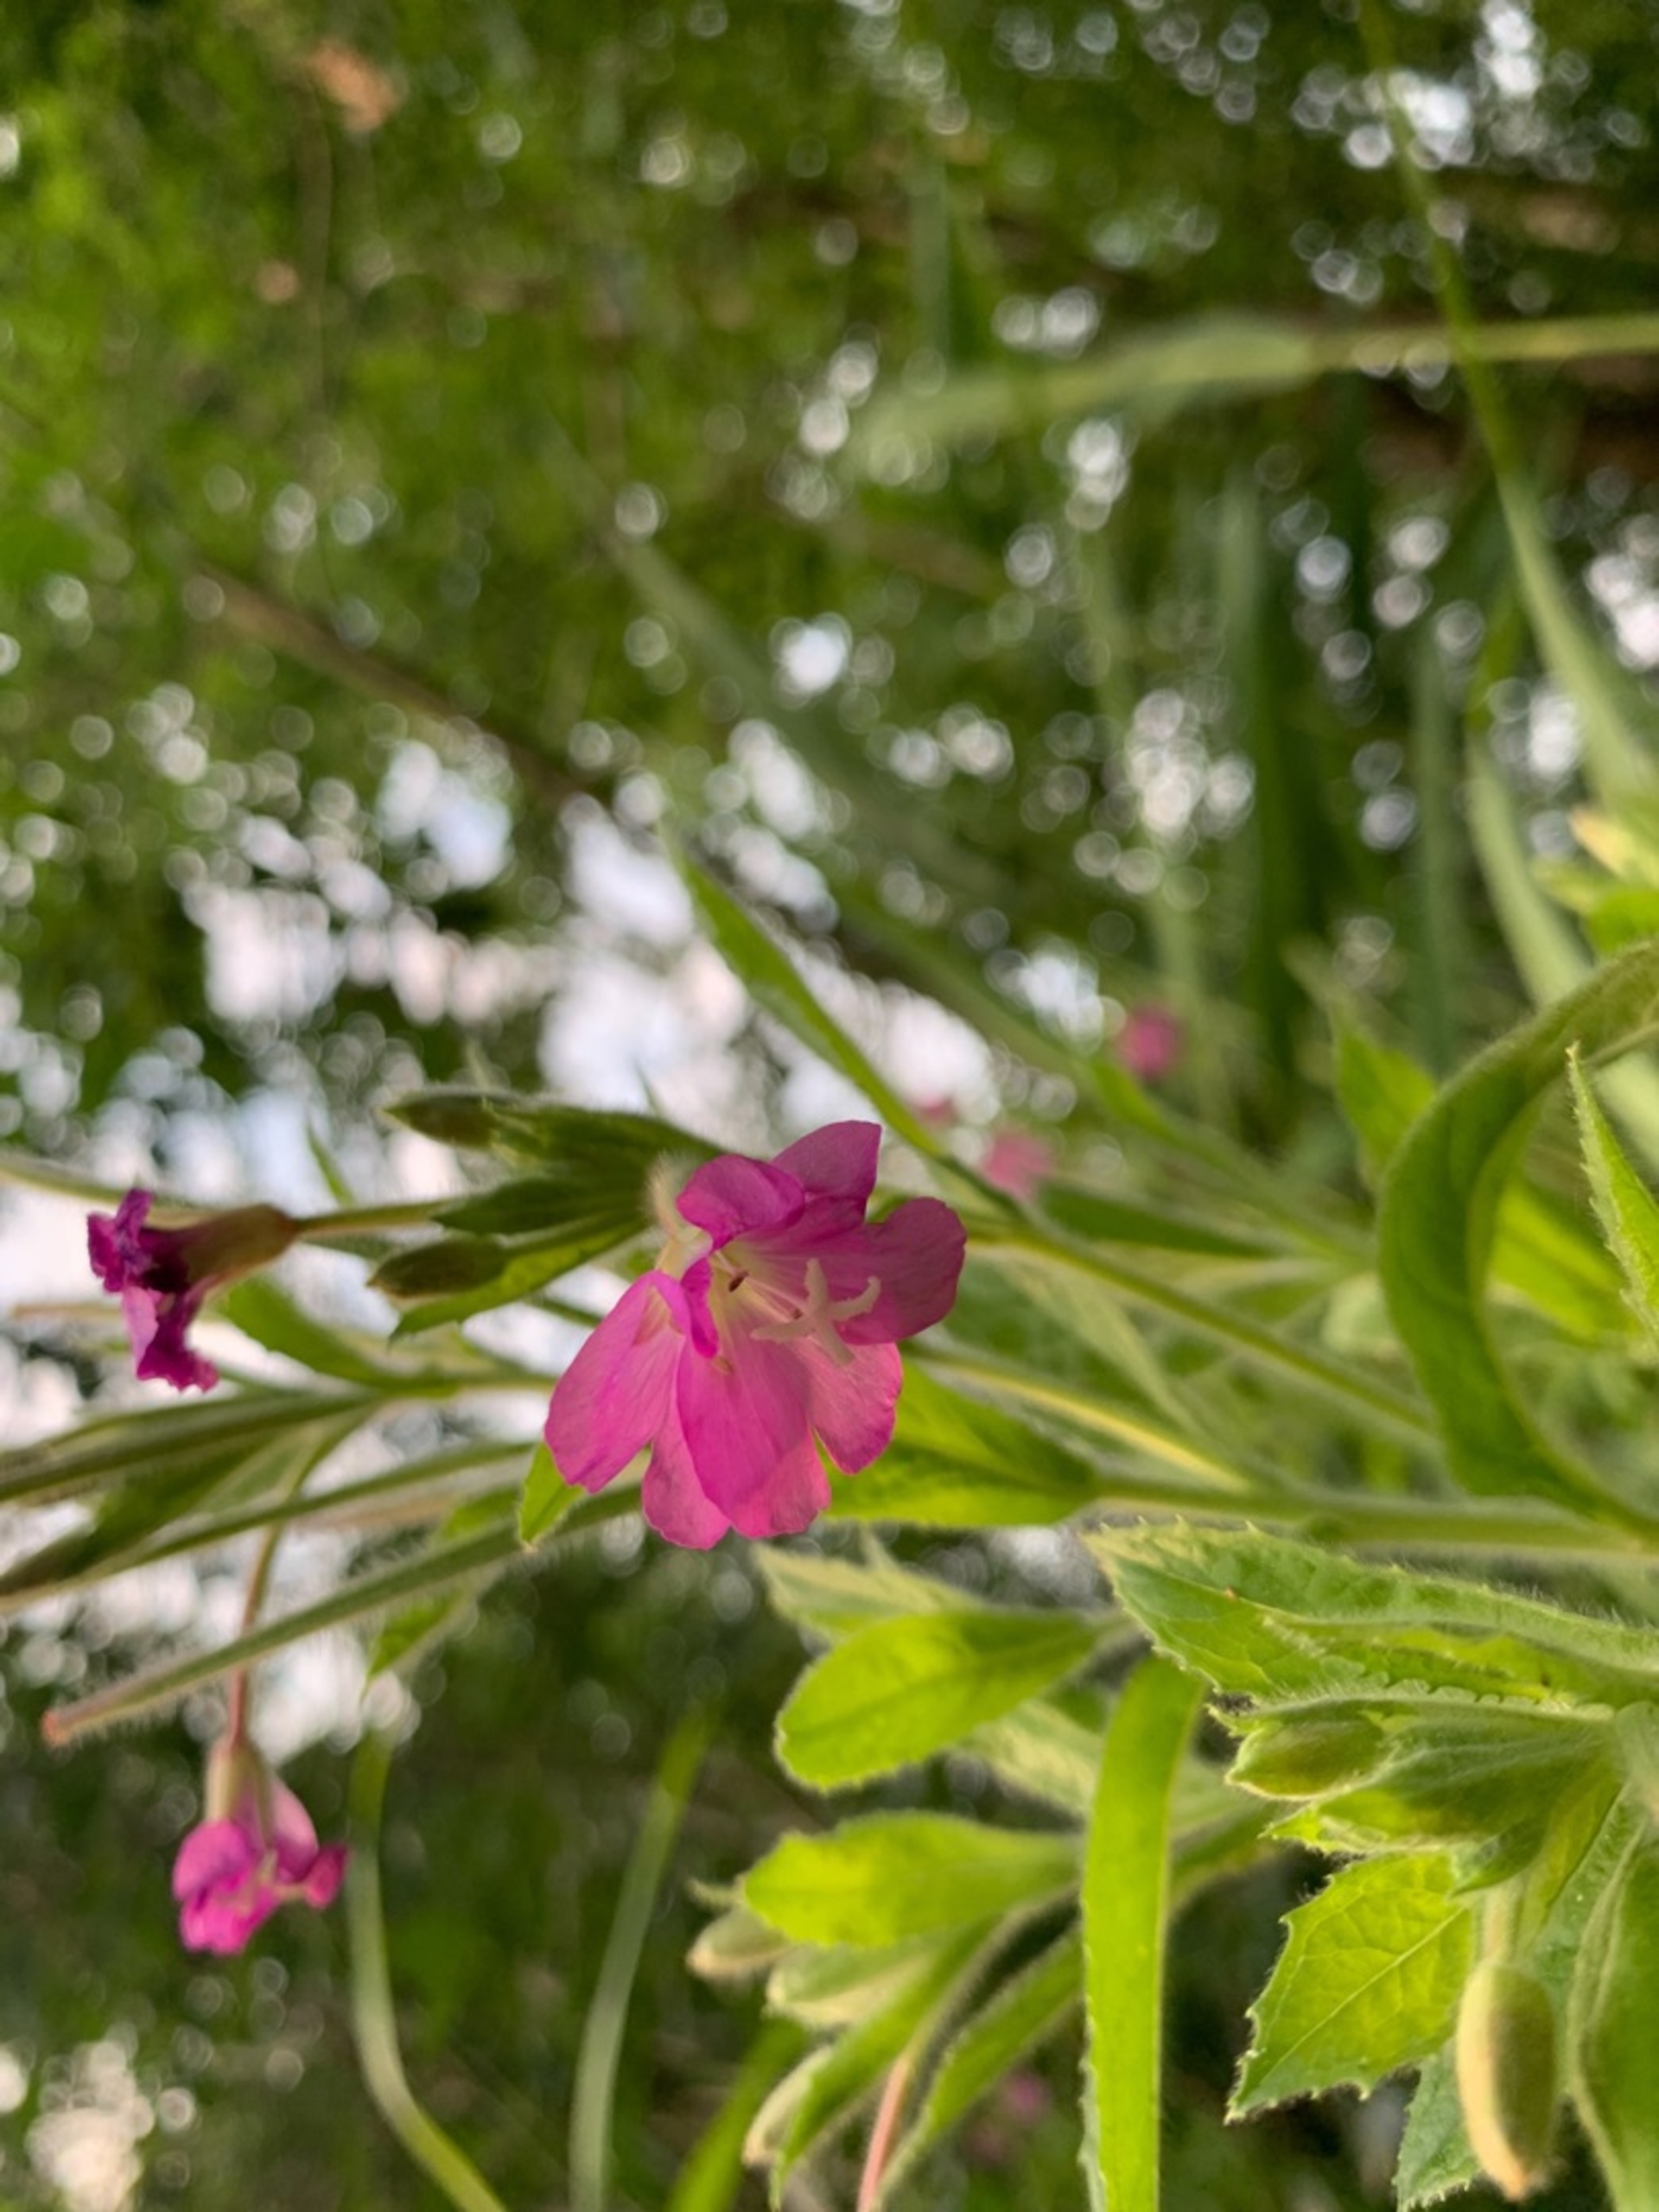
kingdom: Plantae
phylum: Tracheophyta
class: Magnoliopsida
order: Myrtales
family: Onagraceae
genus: Epilobium
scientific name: Epilobium hirsutum
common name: Lådden dueurt
